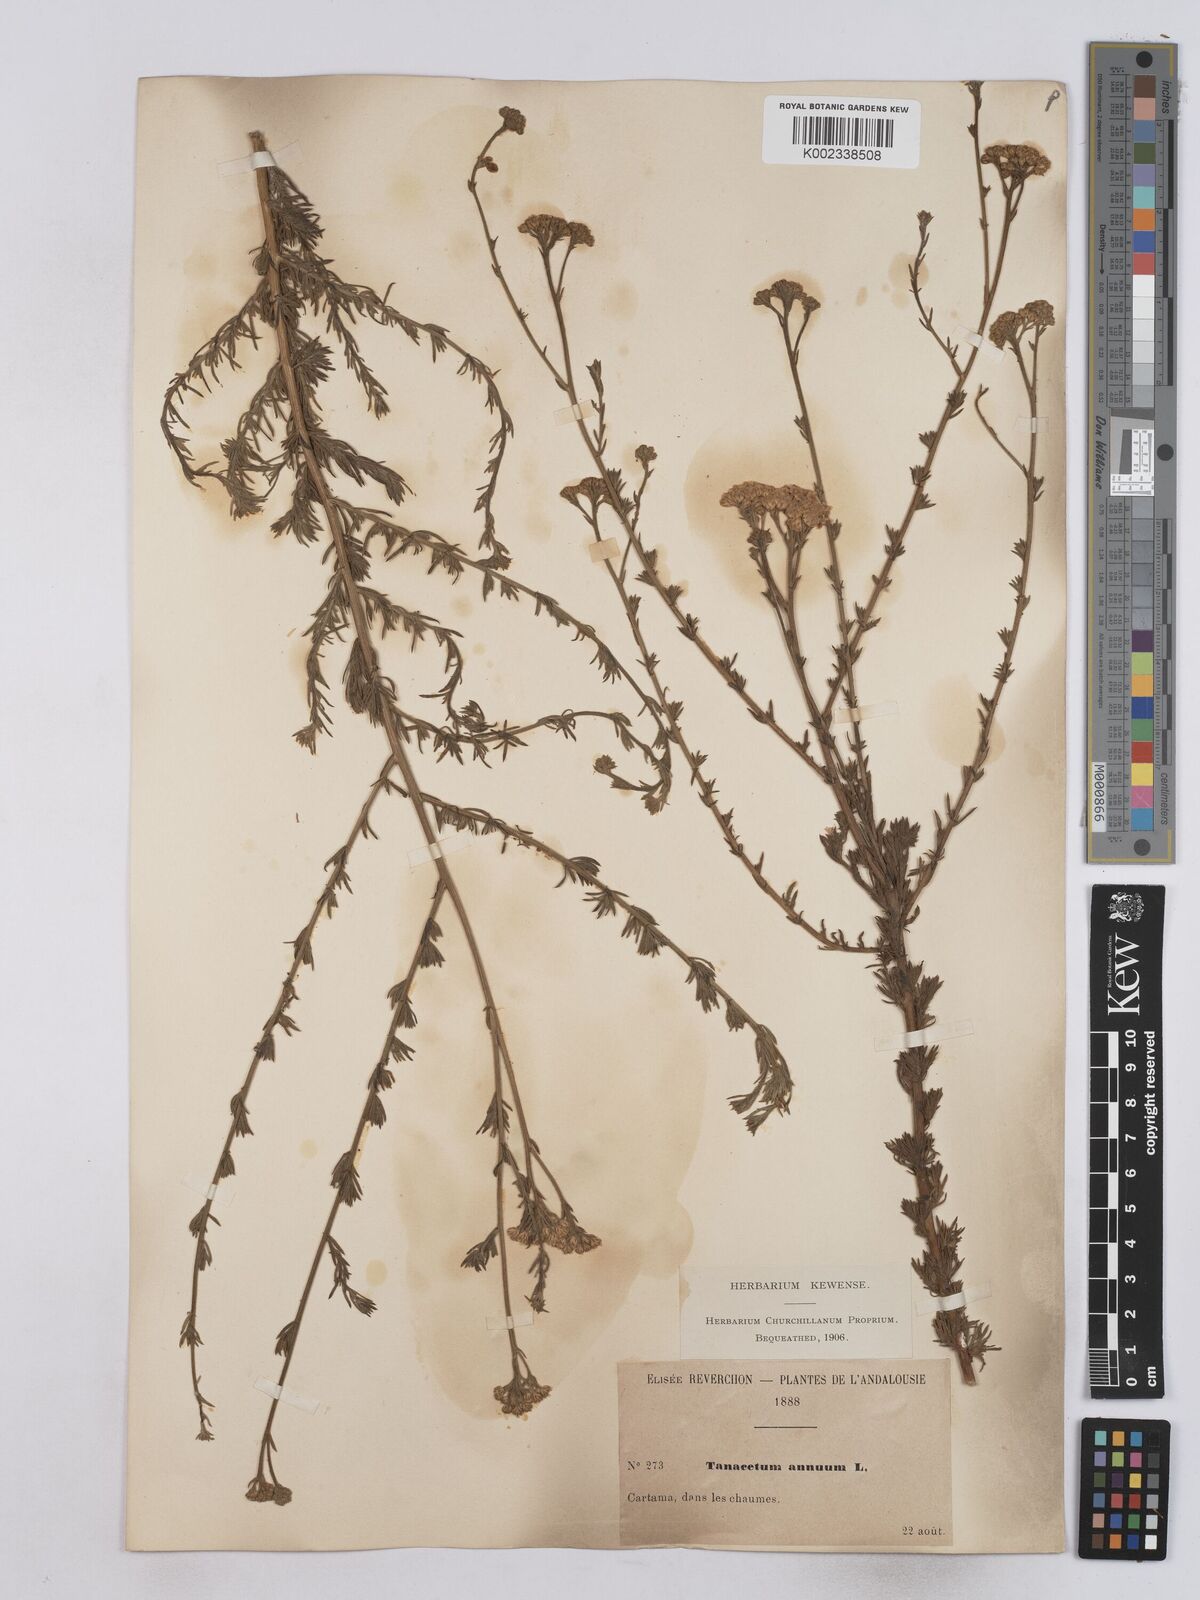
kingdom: Plantae
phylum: Tracheophyta
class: Magnoliopsida
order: Asterales
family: Asteraceae
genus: Vogtia
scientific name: Vogtia annua
